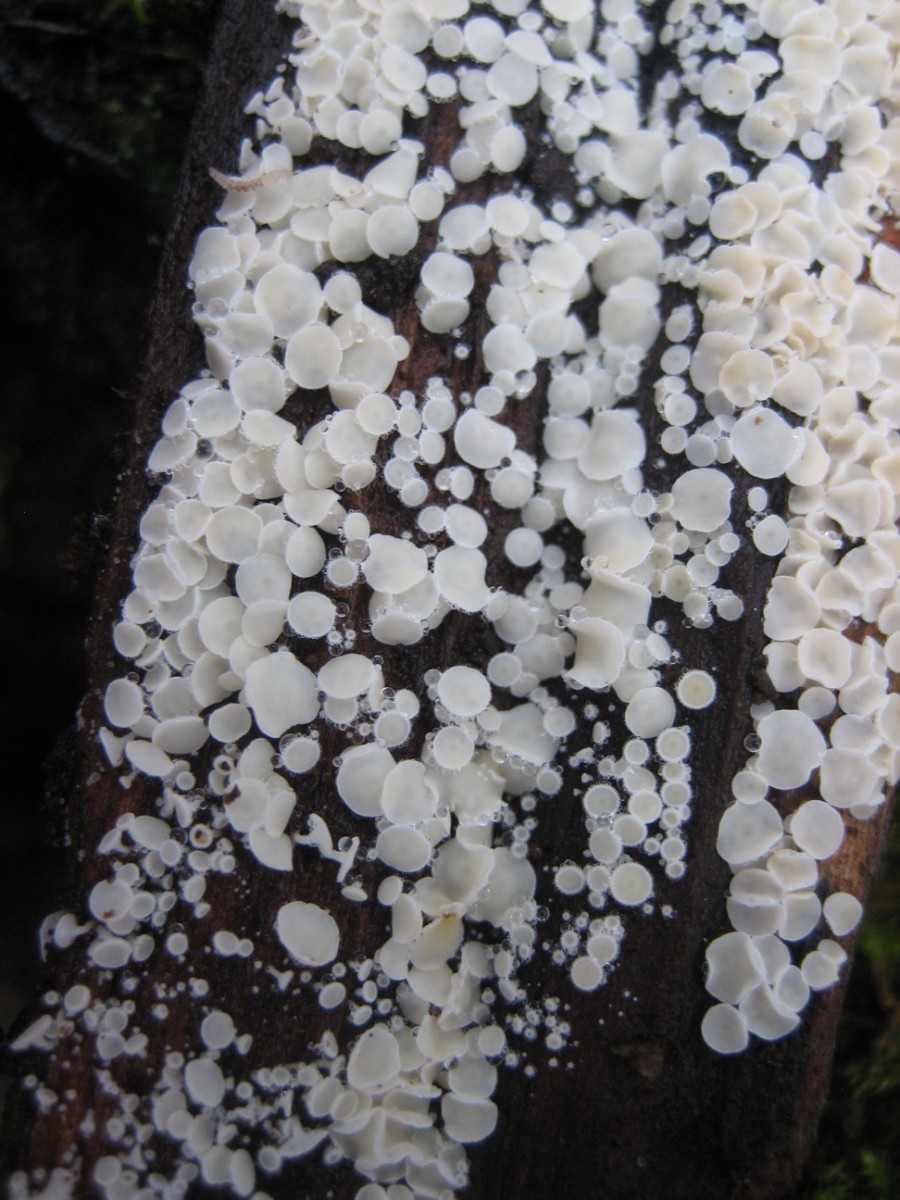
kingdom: Fungi
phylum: Ascomycota
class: Leotiomycetes
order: Helotiales
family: Lachnaceae
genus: Lachnum
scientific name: Lachnum
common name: frynseskive
